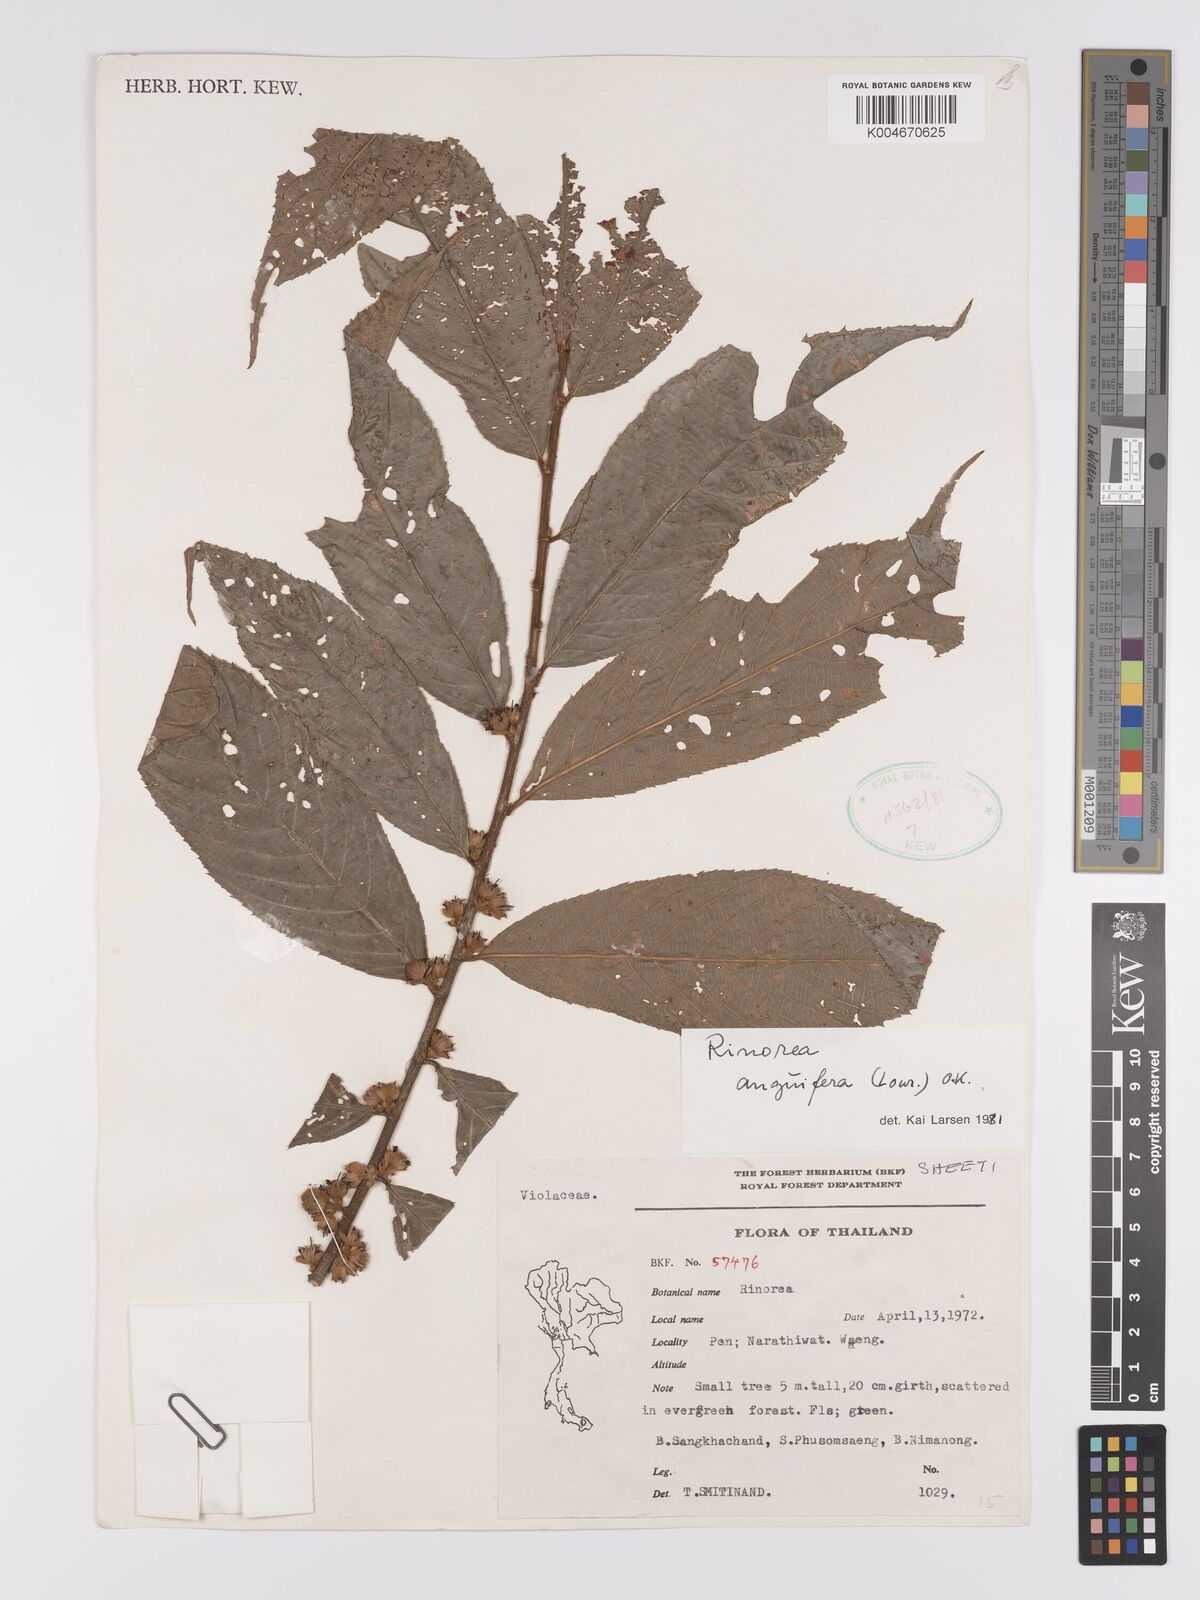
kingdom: Plantae
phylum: Tracheophyta
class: Magnoliopsida
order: Malpighiales
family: Violaceae
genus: Rinorea
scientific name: Rinorea anguifera
